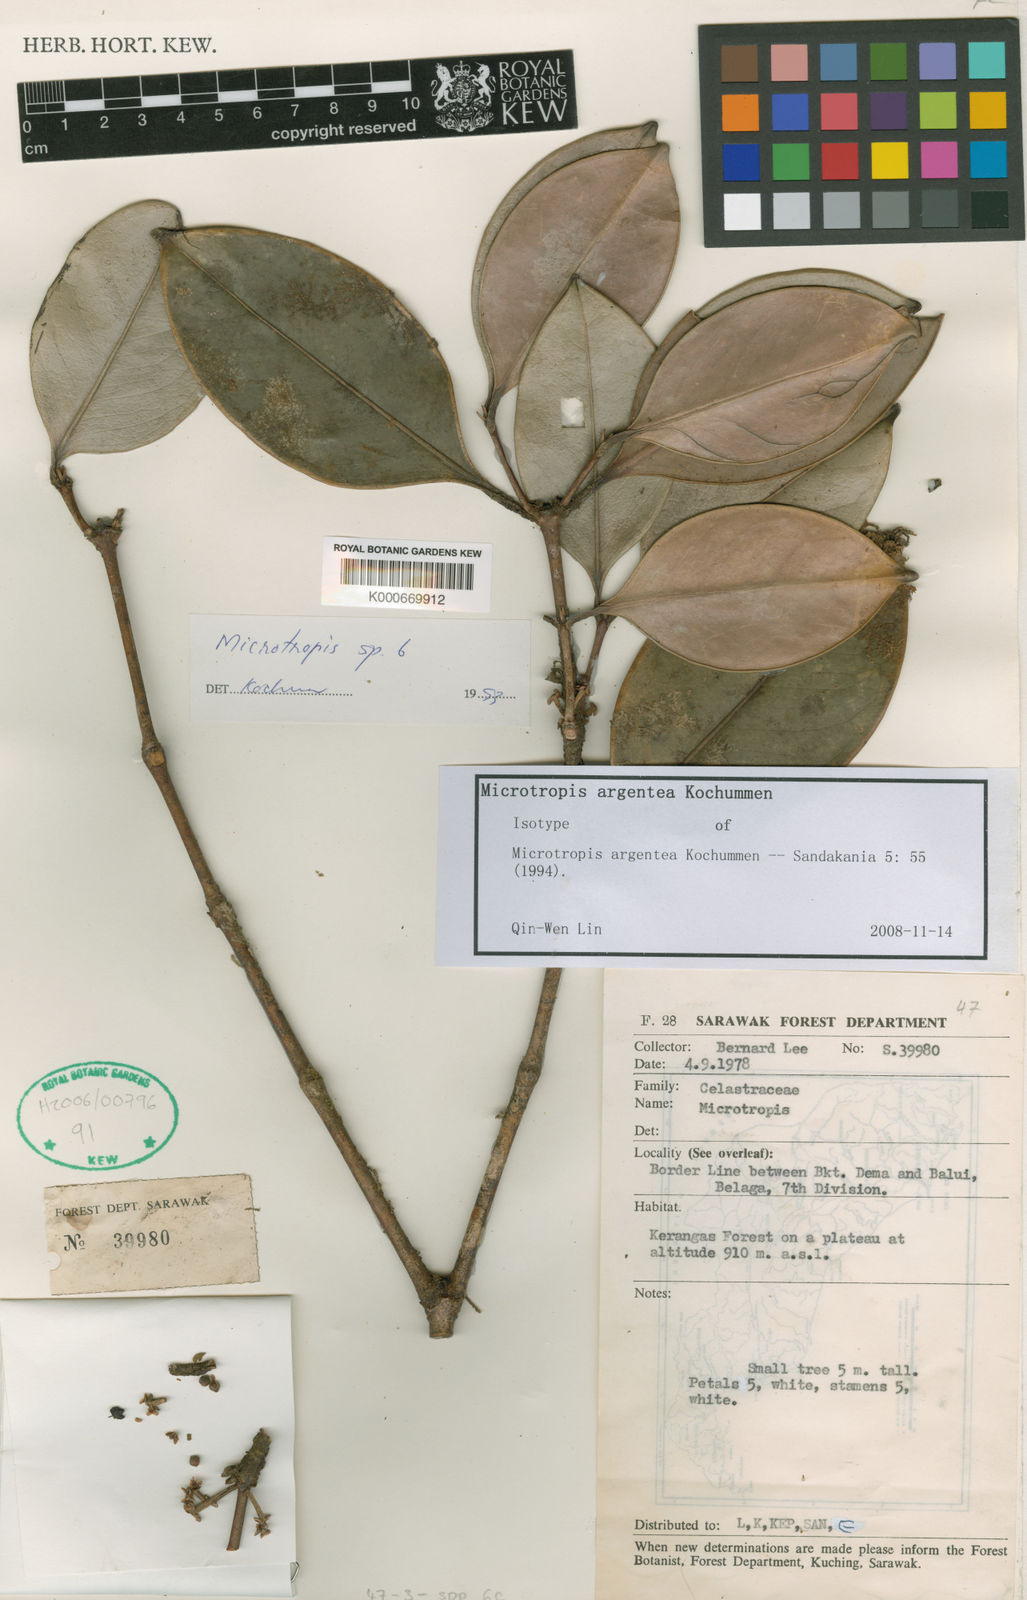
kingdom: Plantae
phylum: Tracheophyta
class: Magnoliopsida
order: Celastrales
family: Celastraceae
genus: Microtropis
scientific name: Microtropis argentea
